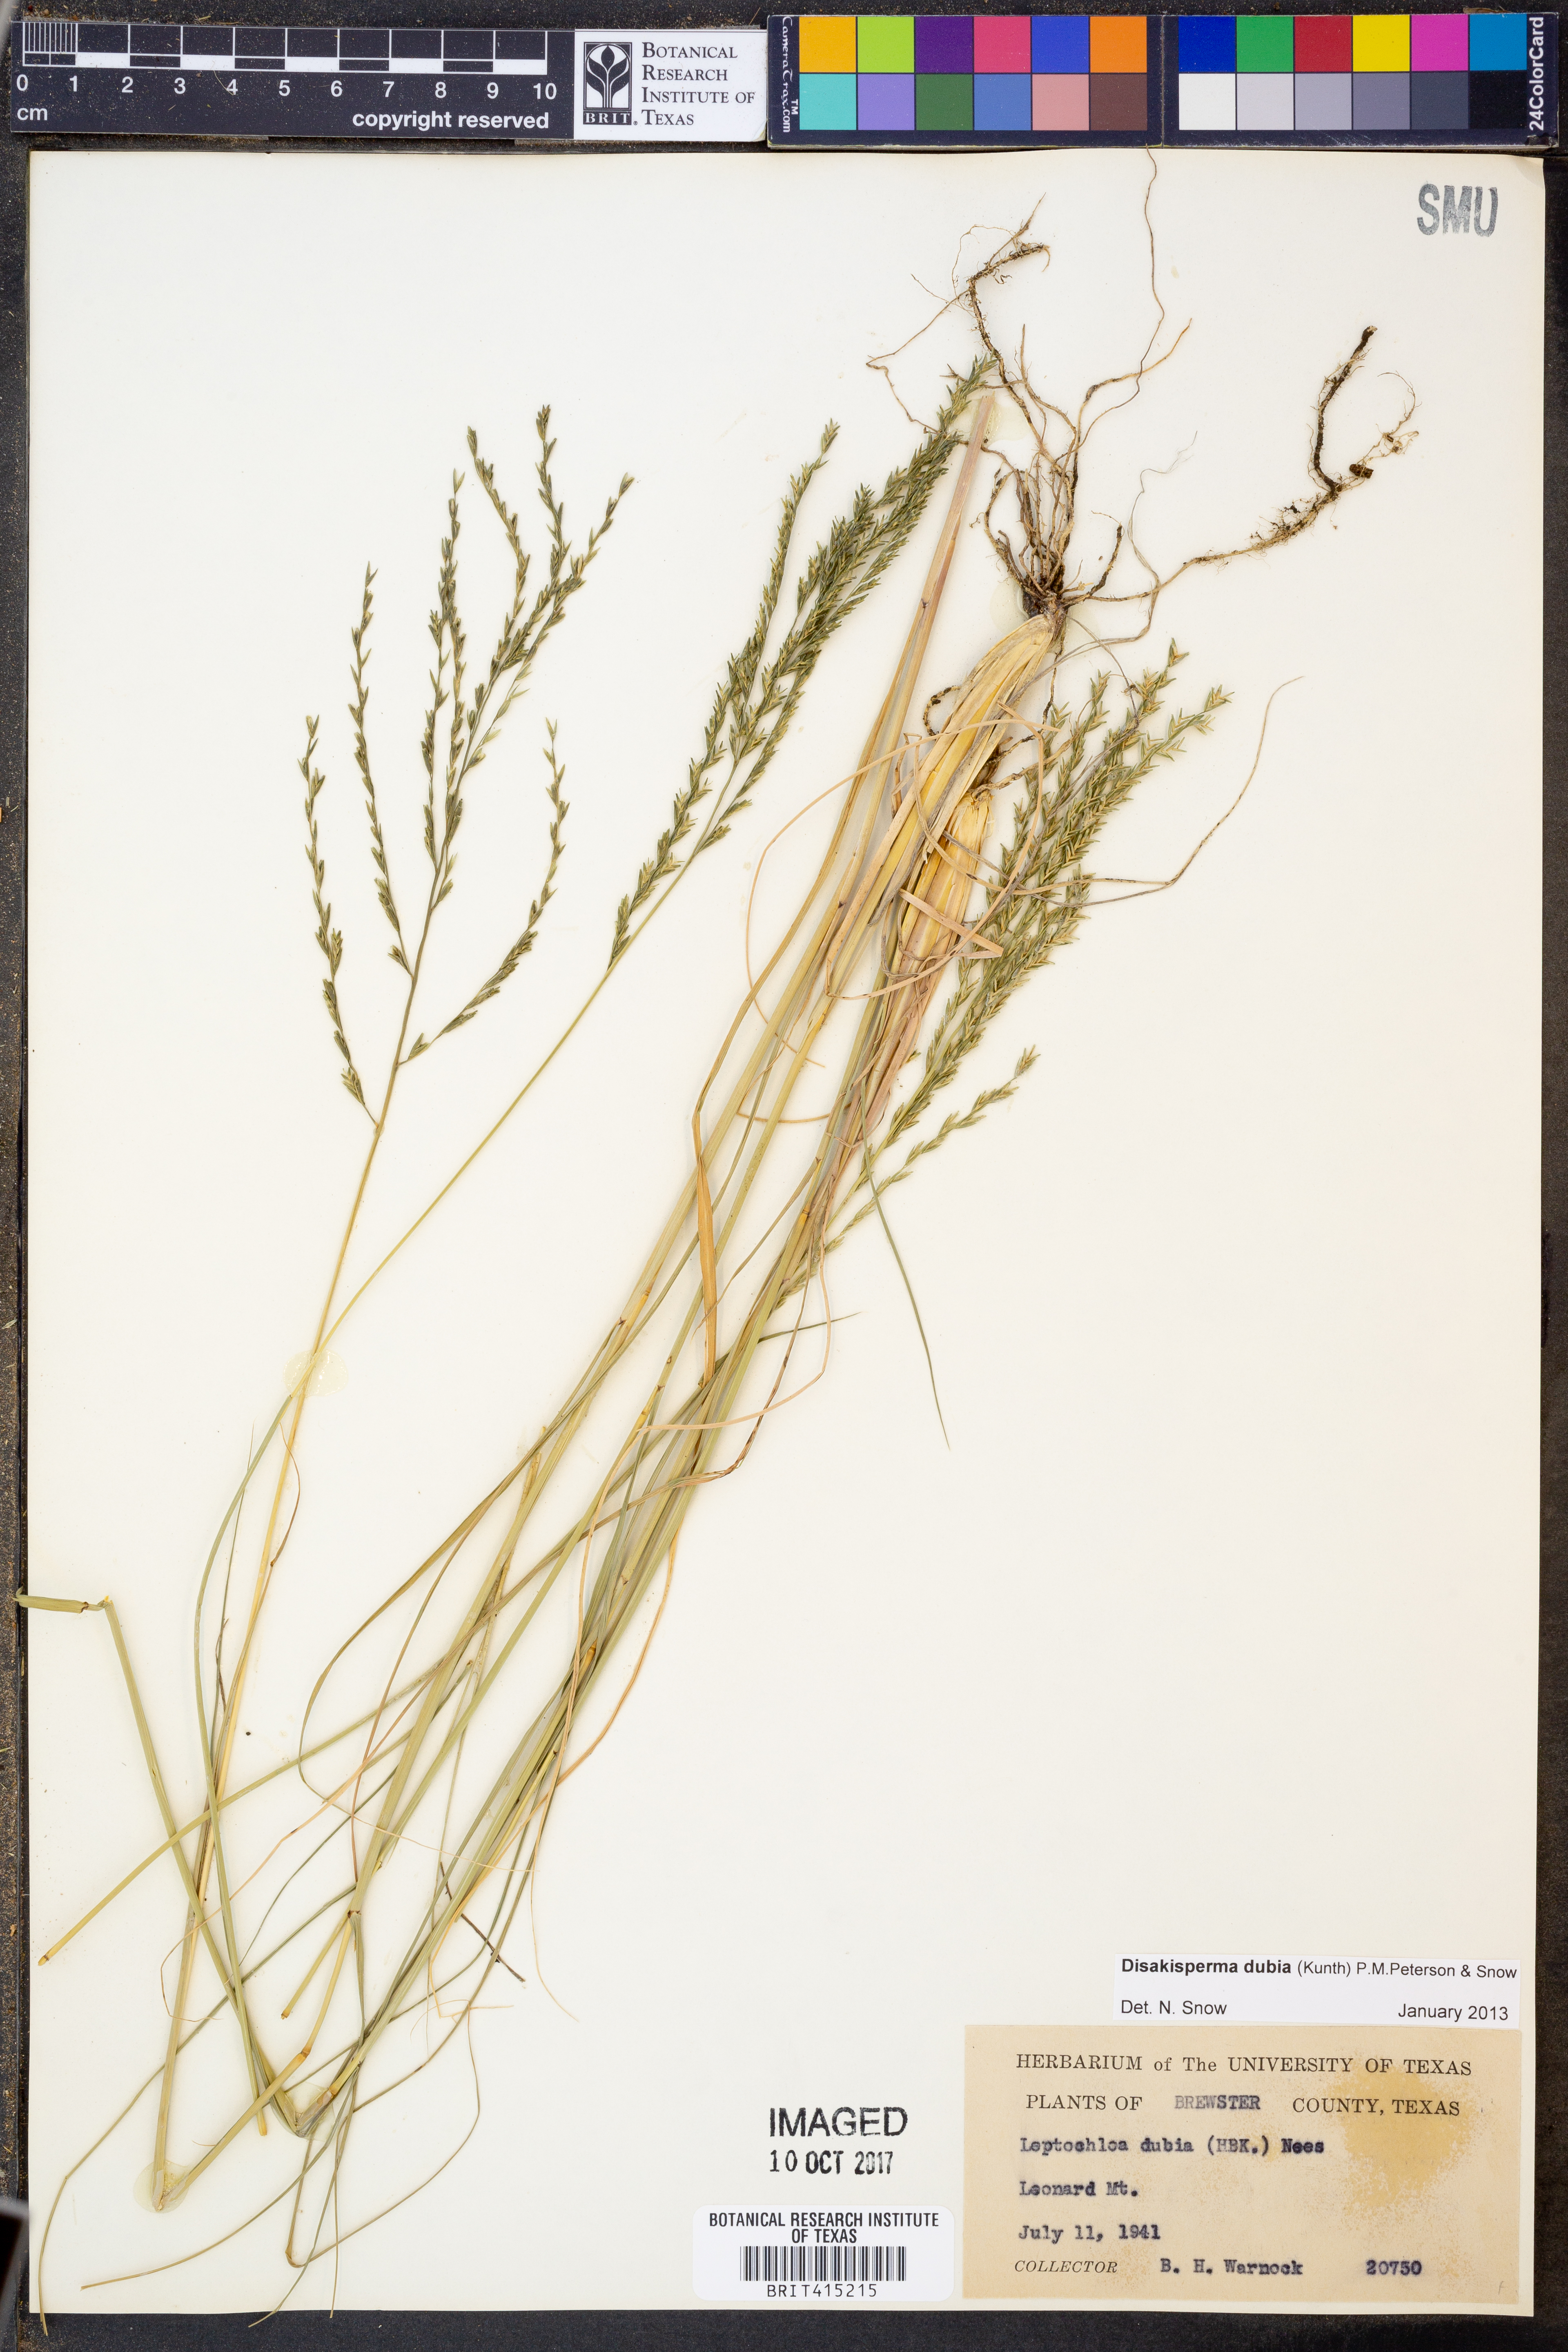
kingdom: Plantae
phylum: Tracheophyta
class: Liliopsida
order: Poales
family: Poaceae
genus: Disakisperma
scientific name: Disakisperma dubium
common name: Green sprangletop
